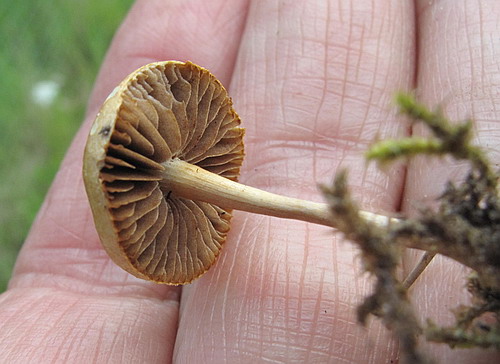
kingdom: Fungi
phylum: Basidiomycota
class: Agaricomycetes
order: Agaricales
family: Strophariaceae
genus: Agrocybe
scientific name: Agrocybe pediades
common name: almindelig agerhat
